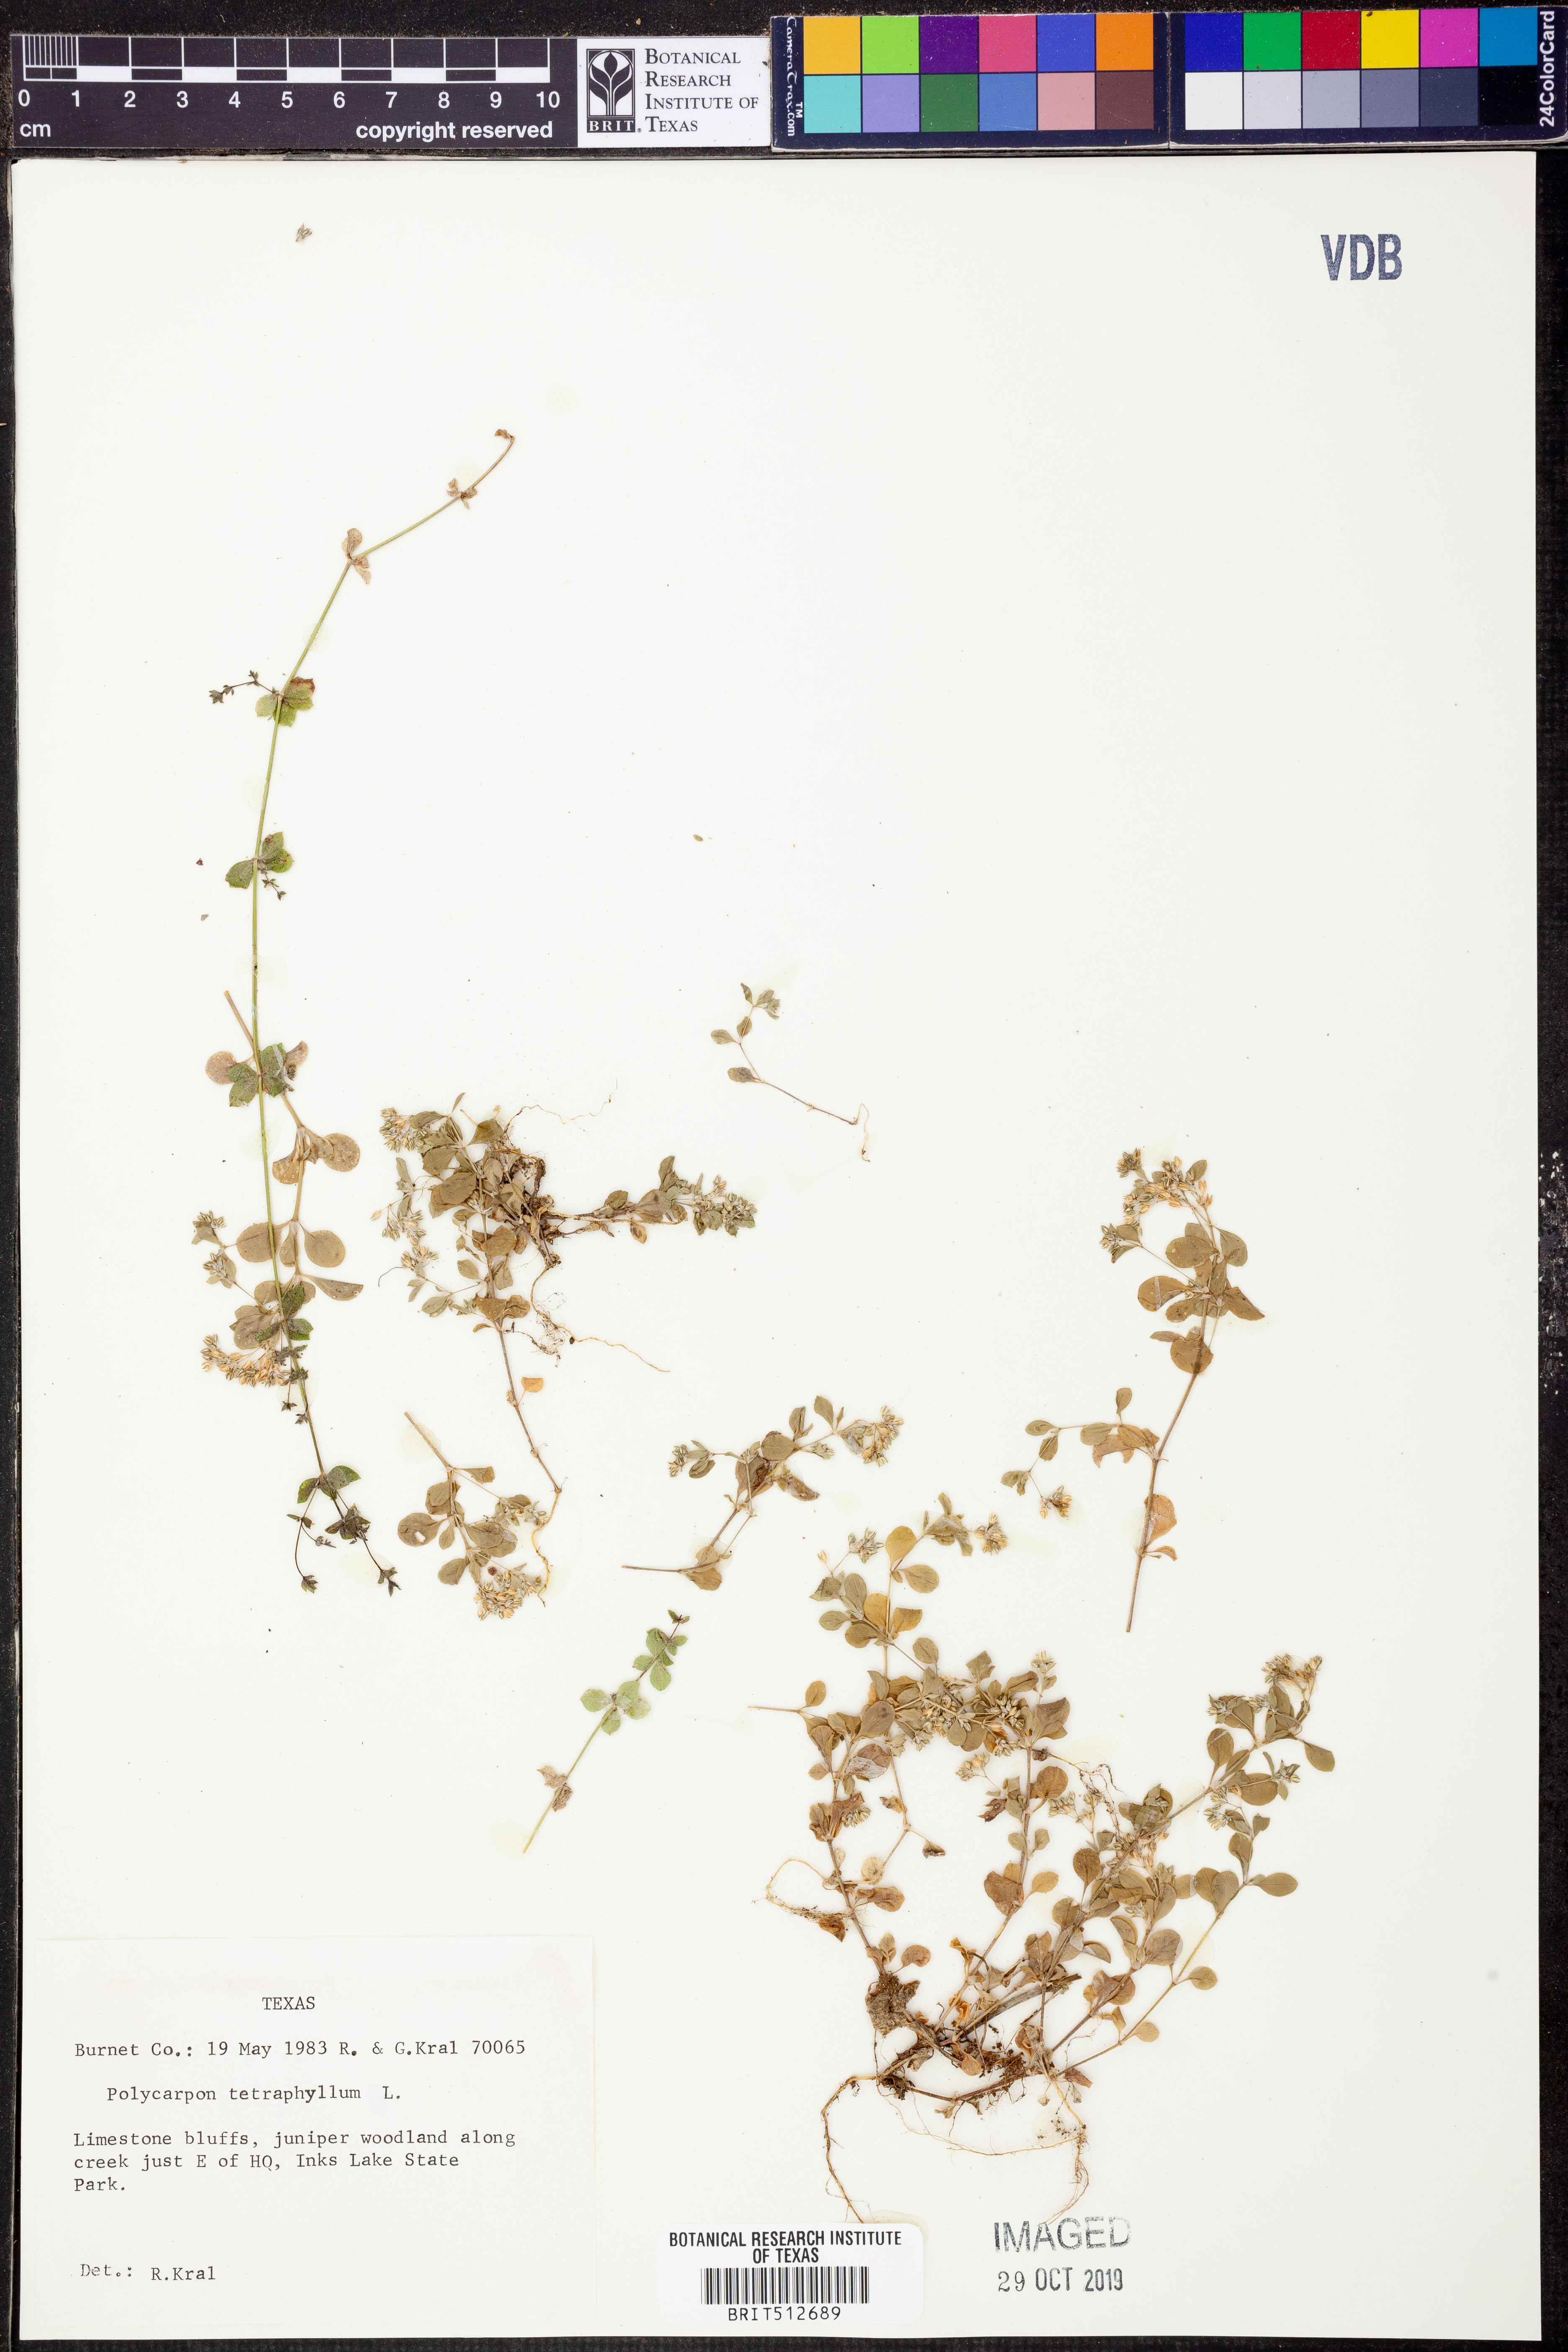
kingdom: Plantae
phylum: Tracheophyta
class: Magnoliopsida
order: Caryophyllales
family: Caryophyllaceae
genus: Polycarpon
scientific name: Polycarpon tetraphyllum
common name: Four-leaved all-seed
